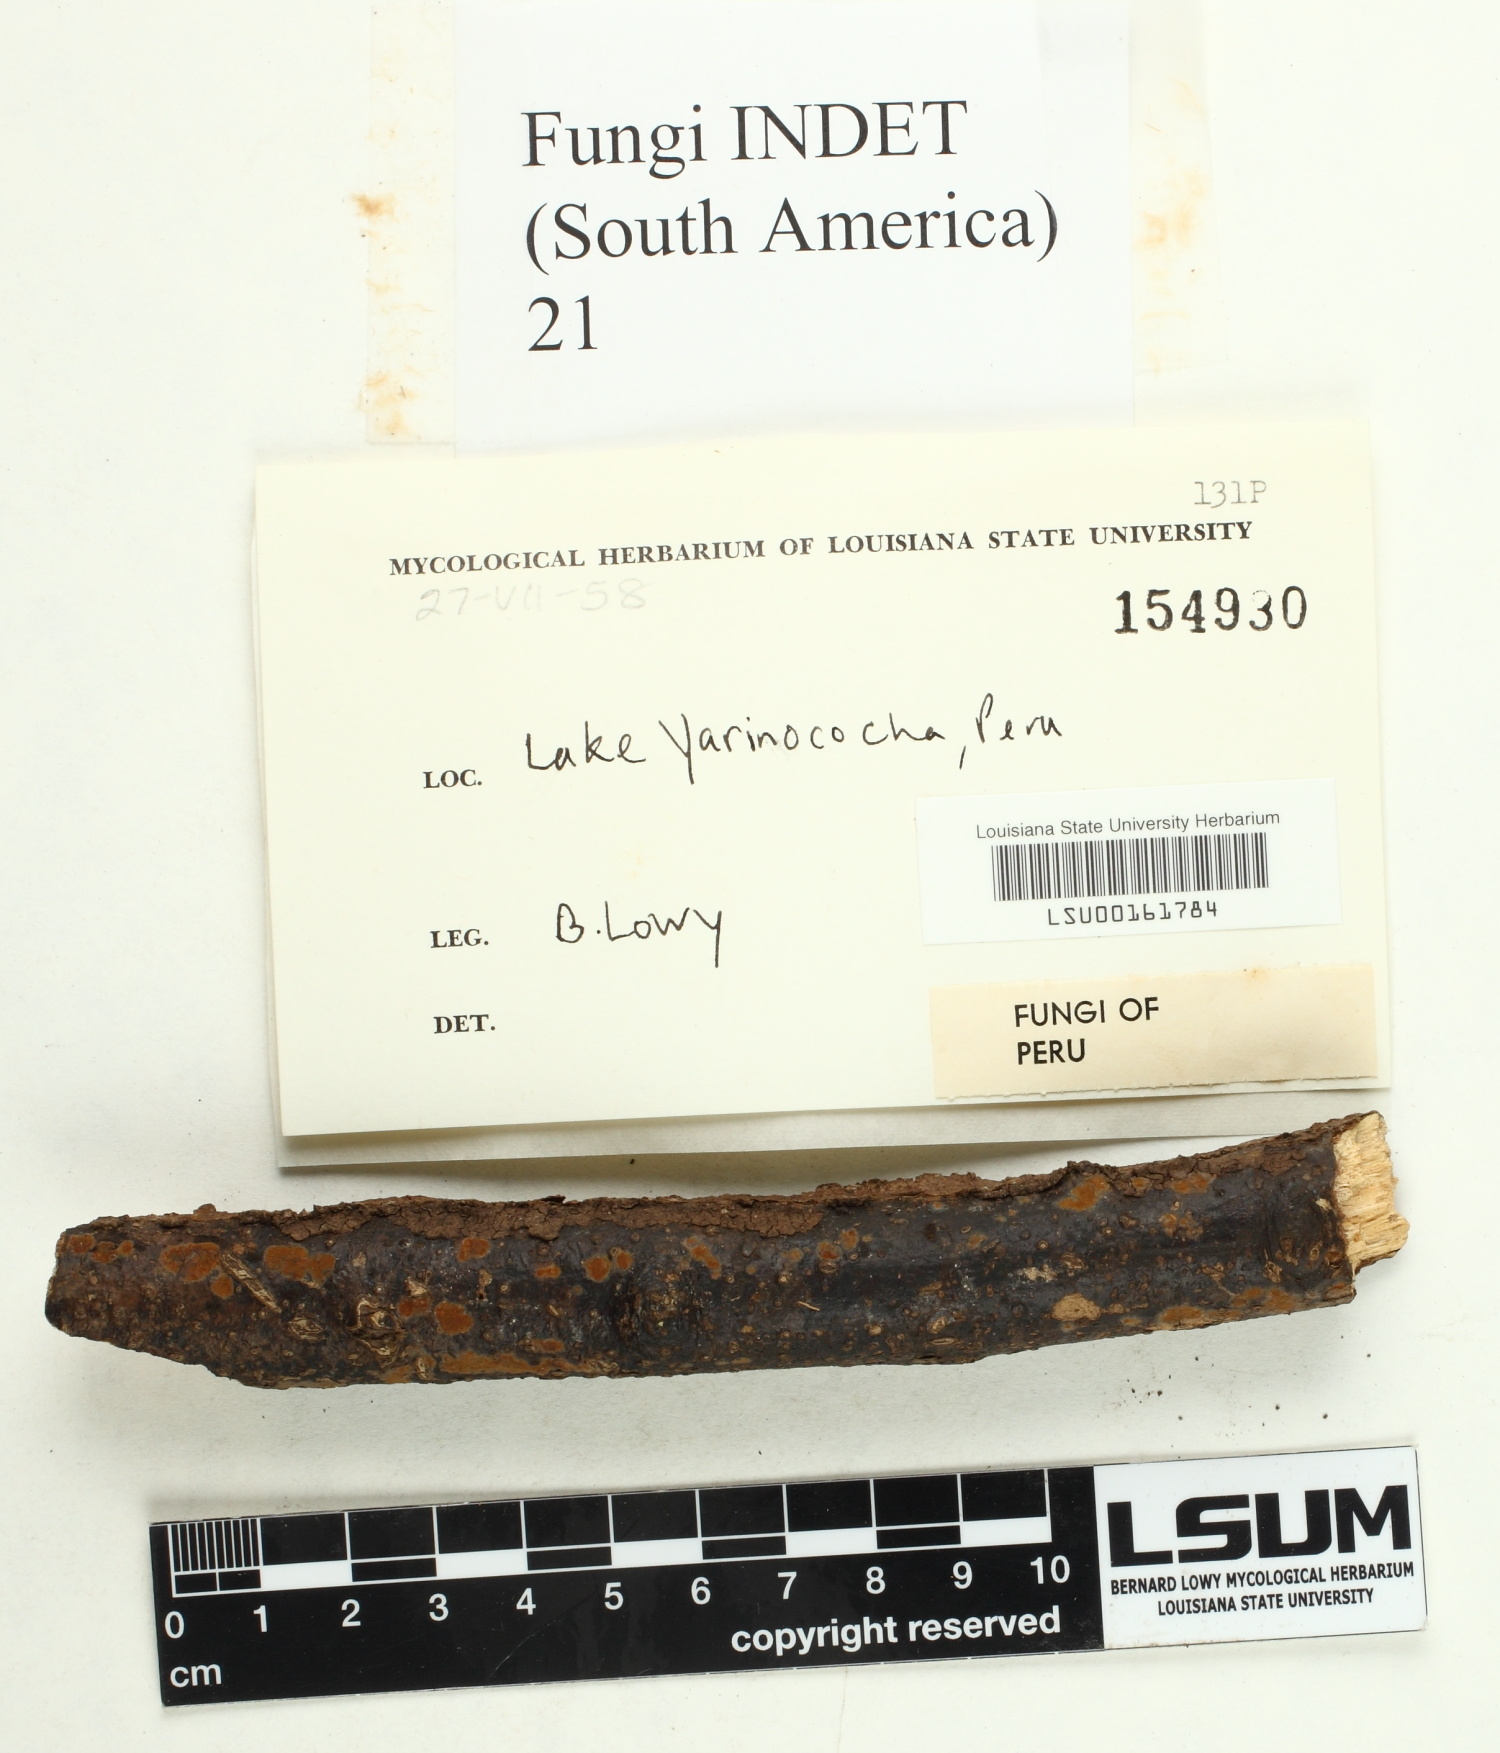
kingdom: Fungi
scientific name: Fungi
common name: Fungi
